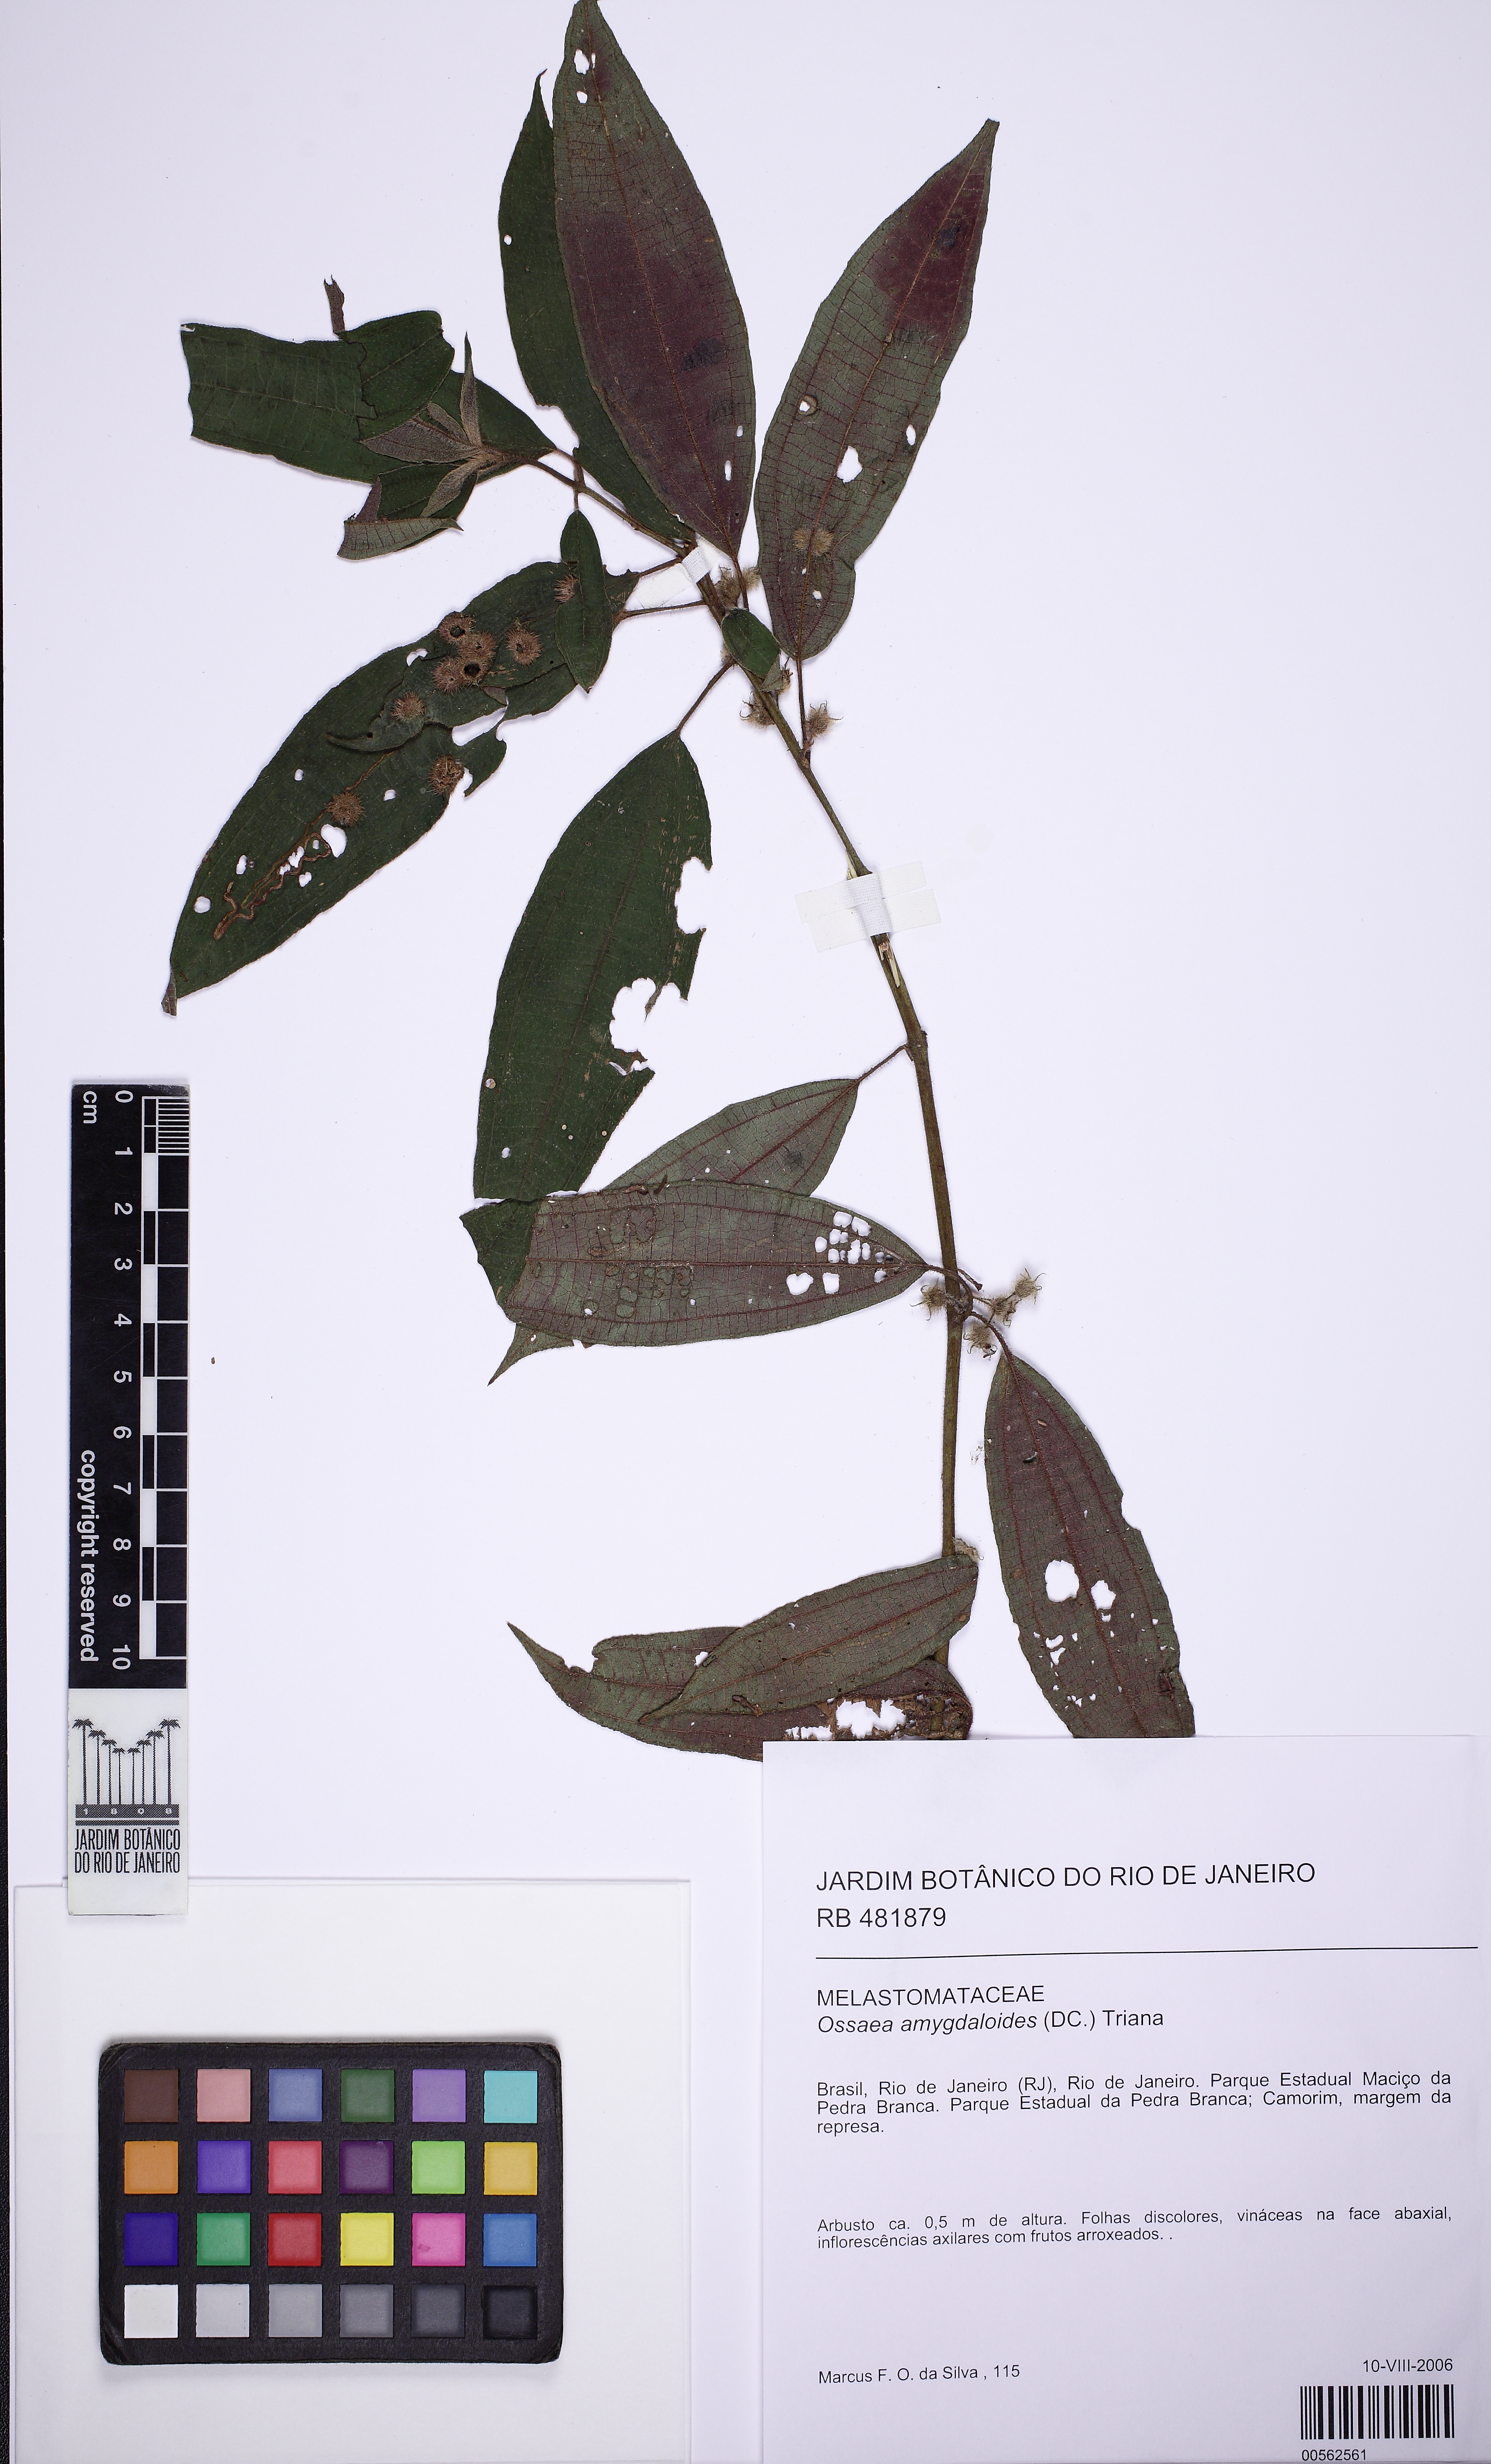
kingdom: Plantae
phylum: Tracheophyta
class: Magnoliopsida
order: Myrtales
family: Melastomataceae
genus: Miconia
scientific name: Miconia amygdaloides
